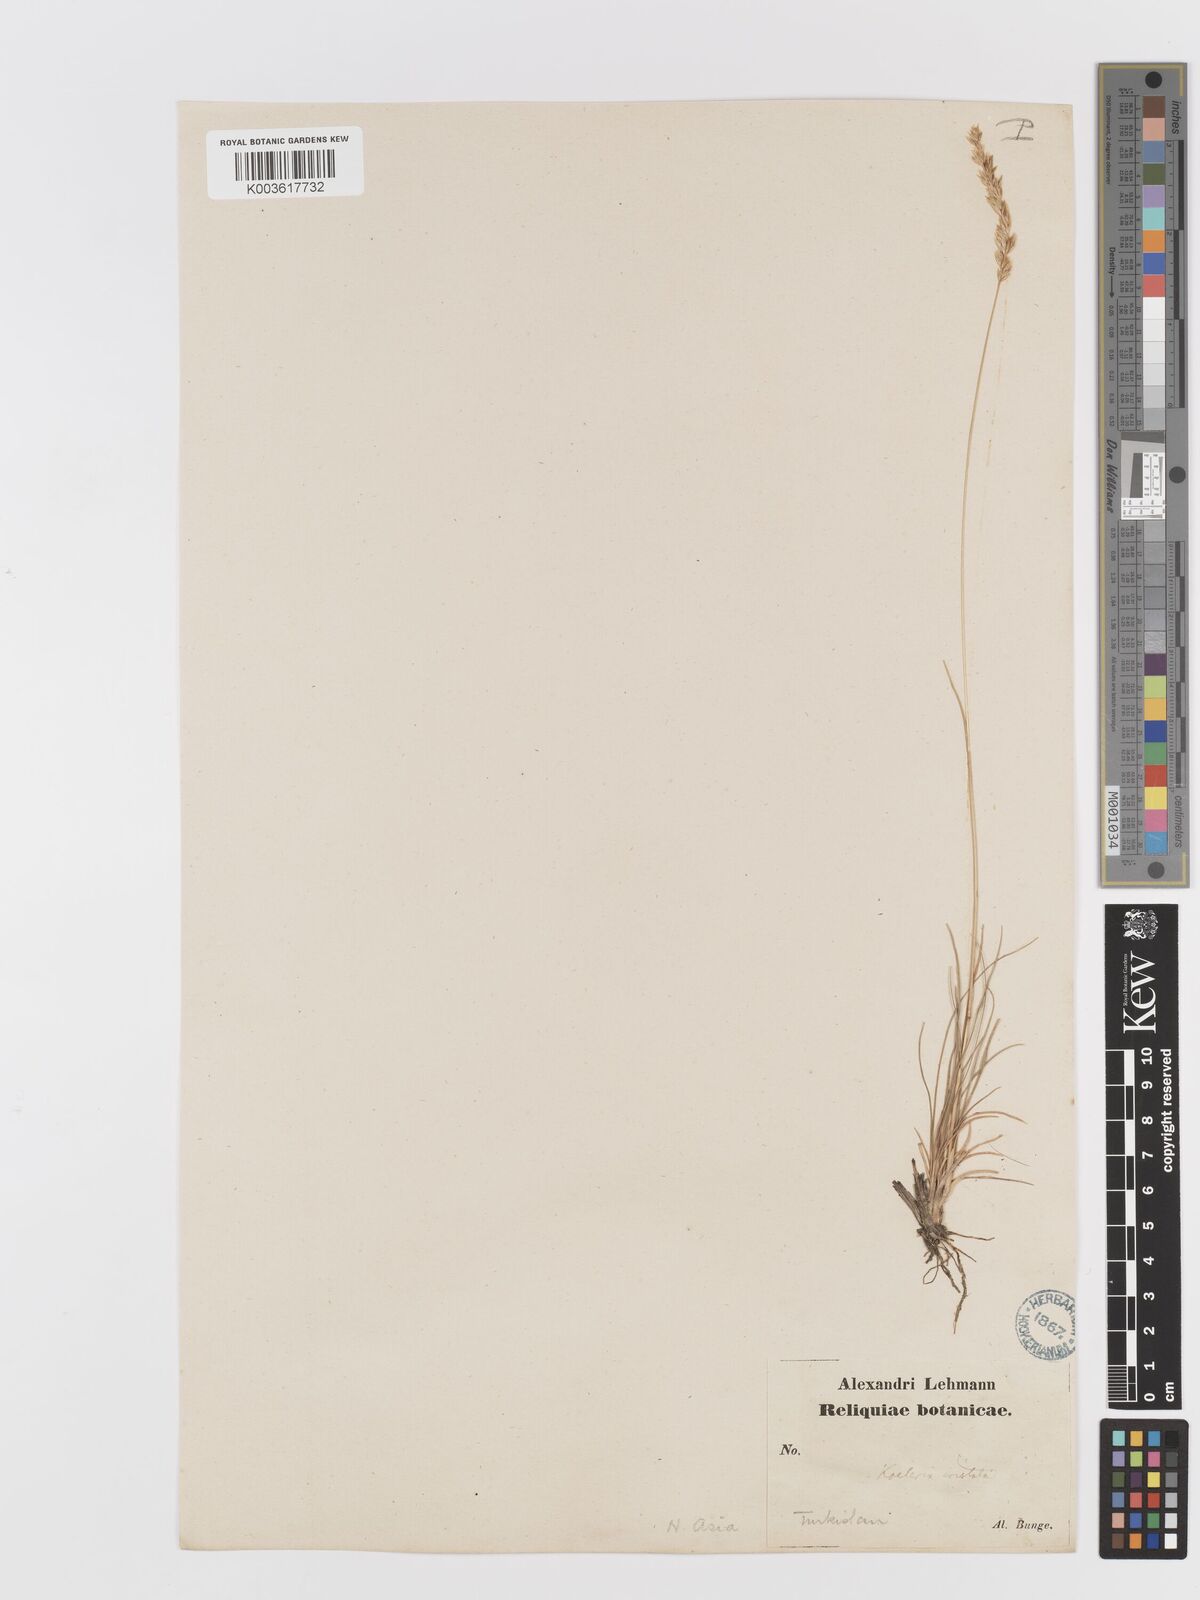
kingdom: Plantae
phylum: Tracheophyta
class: Liliopsida
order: Poales
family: Poaceae
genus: Koeleria
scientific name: Koeleria splendens
